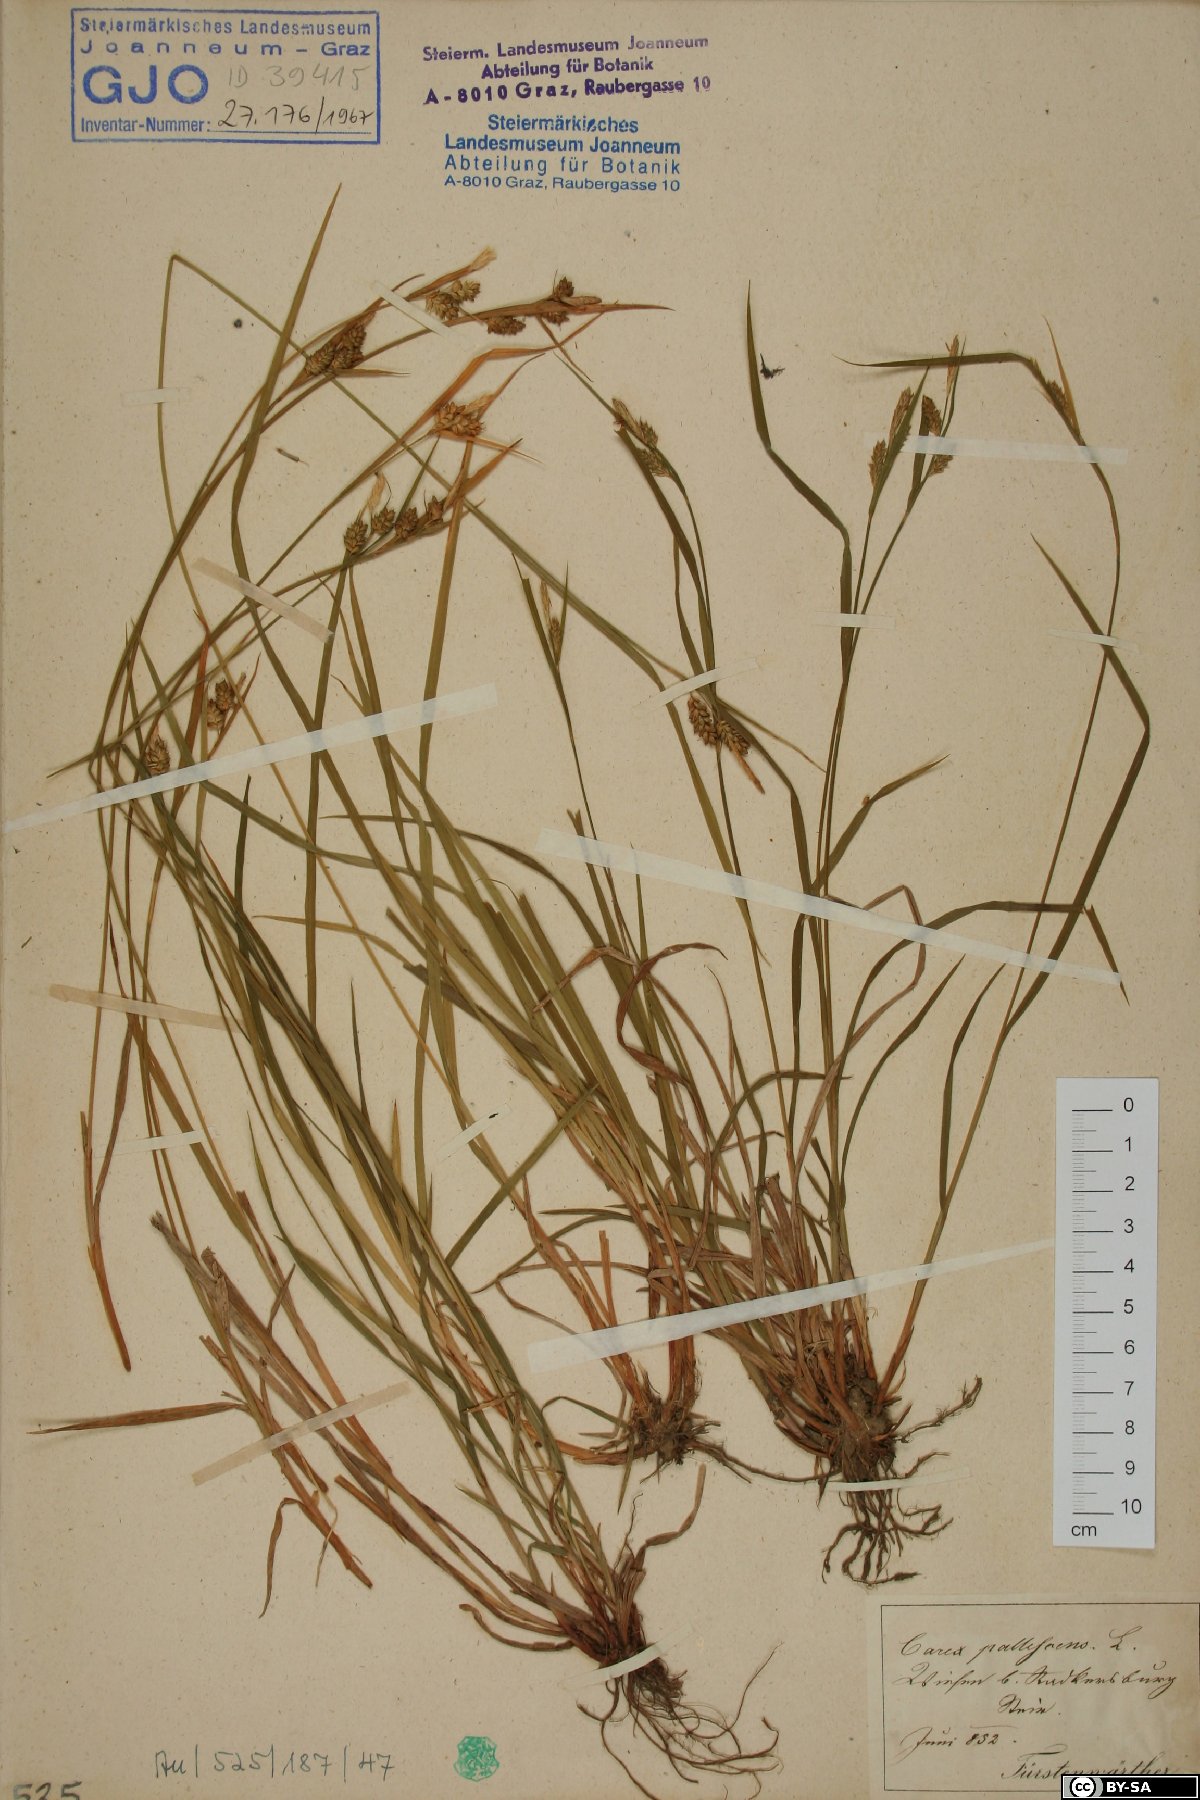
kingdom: Plantae
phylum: Tracheophyta
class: Liliopsida
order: Poales
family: Cyperaceae
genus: Carex
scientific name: Carex pallescens
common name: Pale sedge
